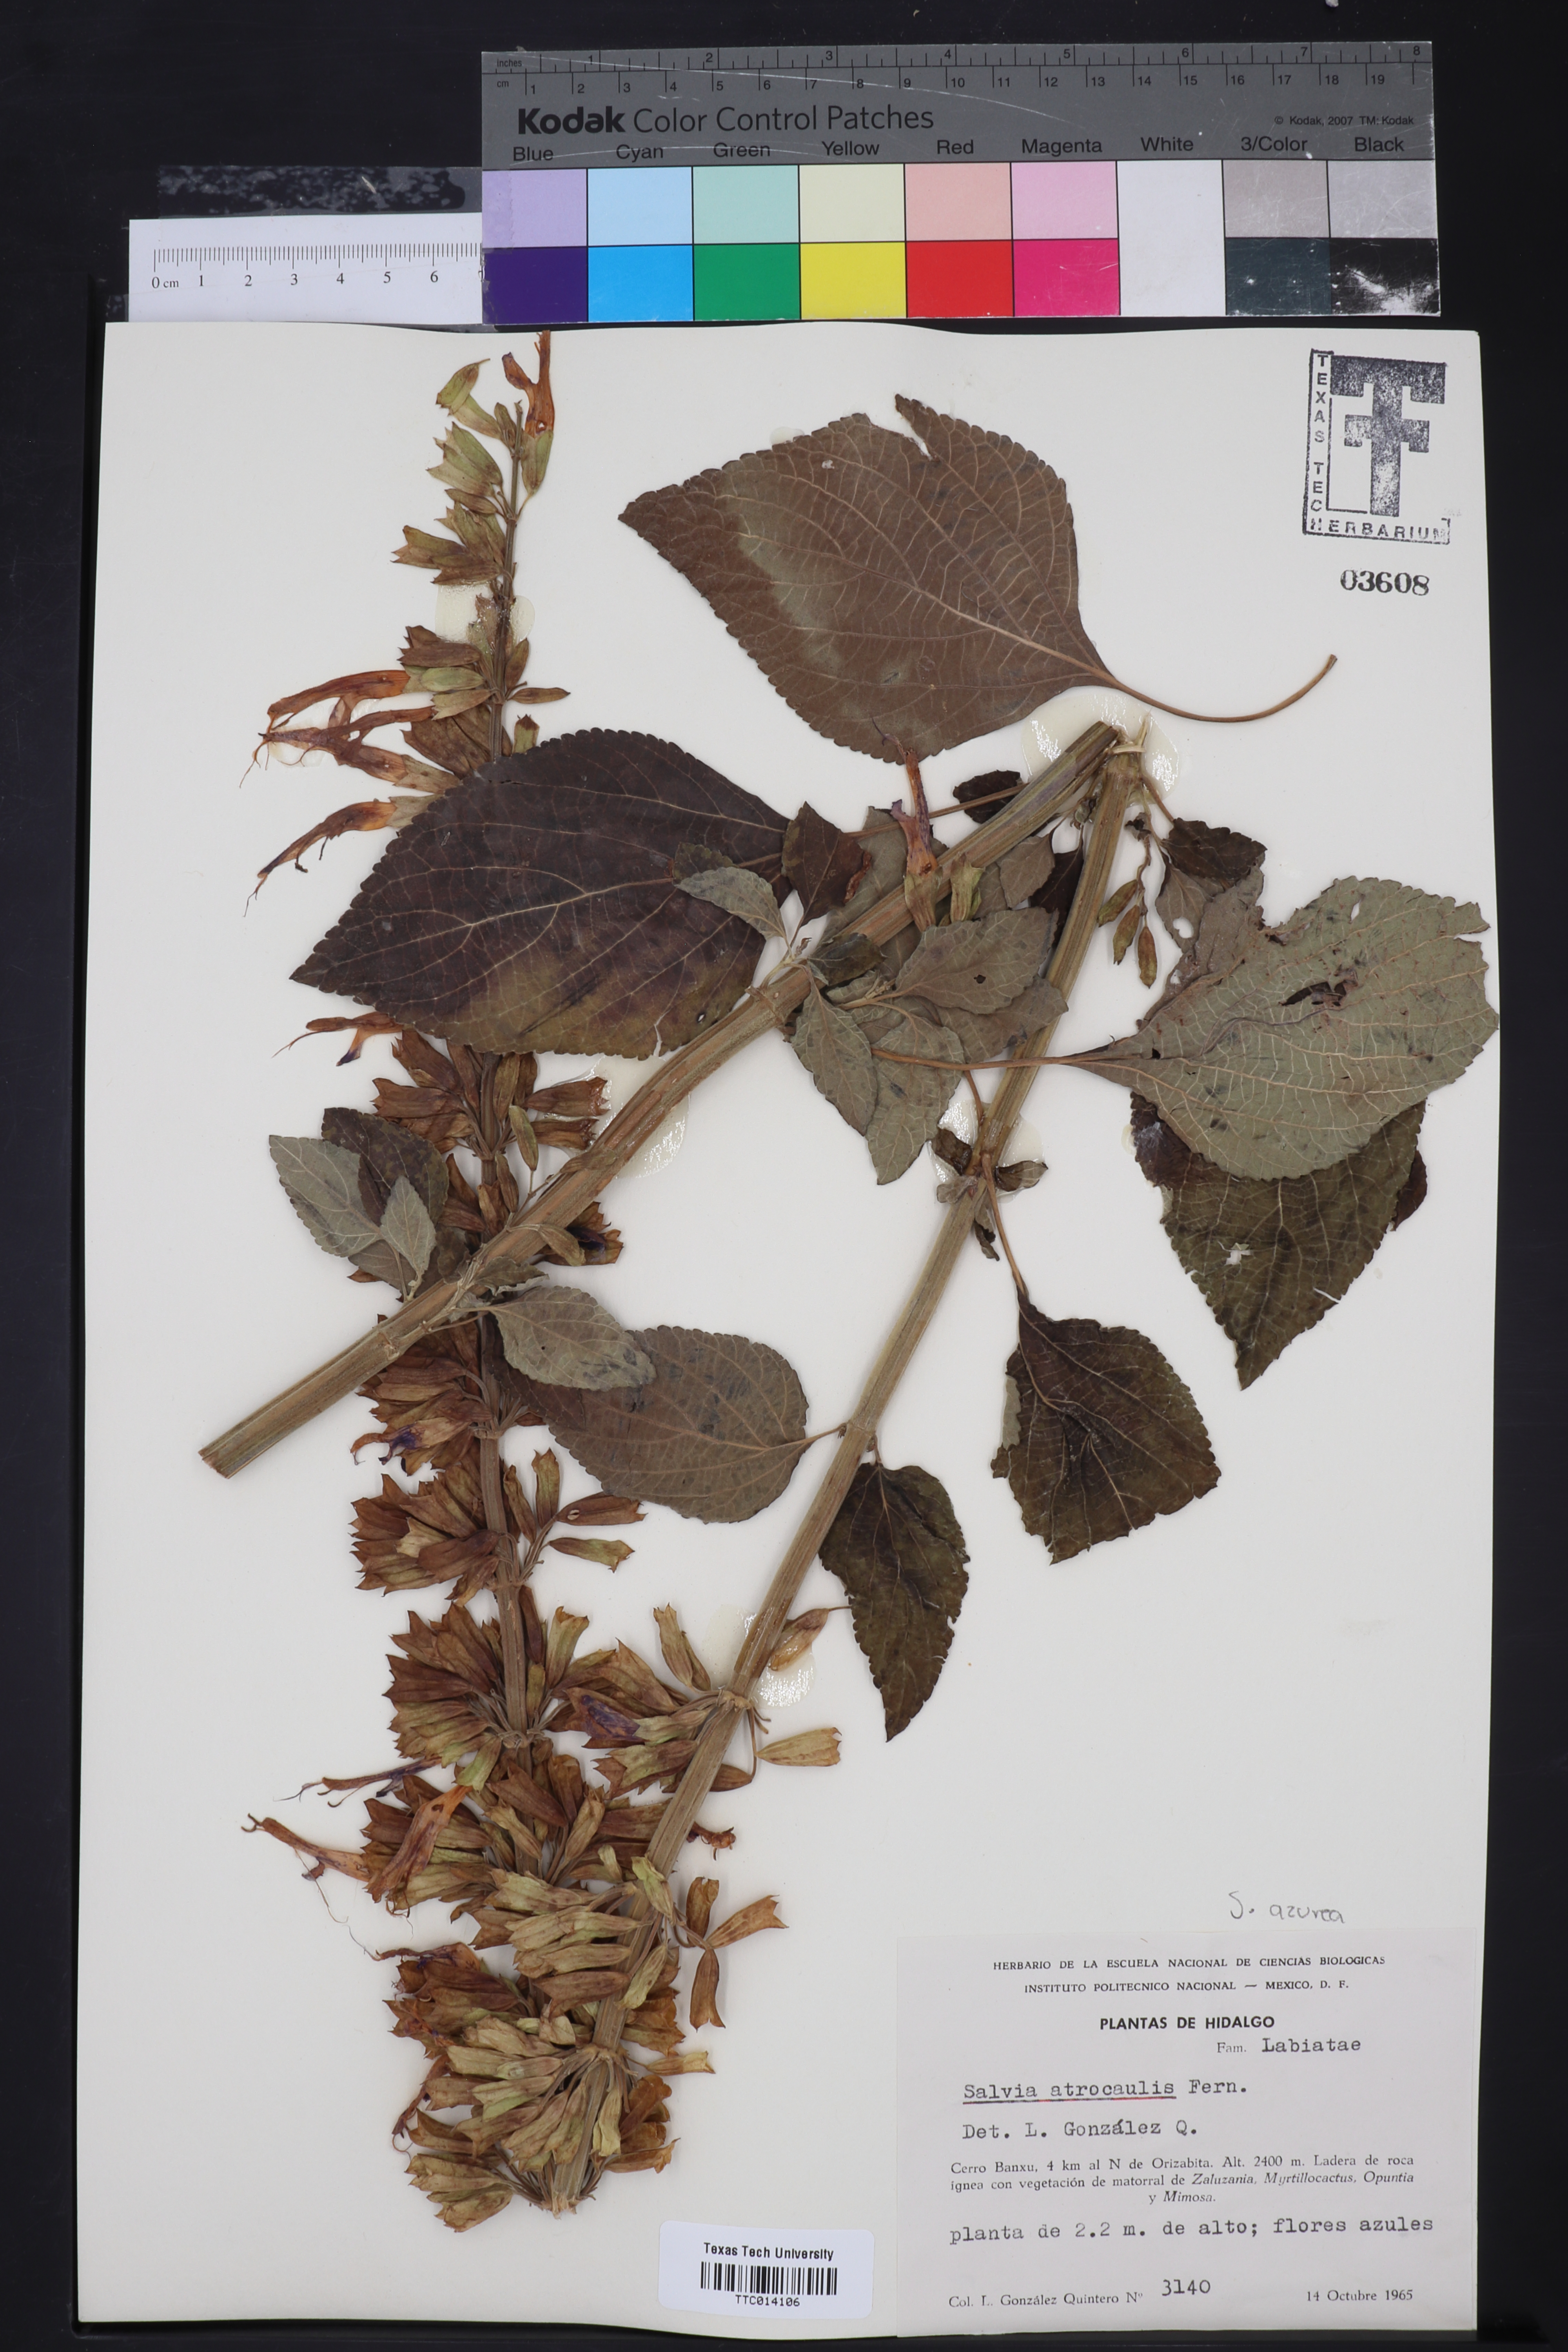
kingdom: Plantae
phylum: Tracheophyta
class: Magnoliopsida
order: Lamiales
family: Lamiaceae
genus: Salvia
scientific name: Salvia recurva
